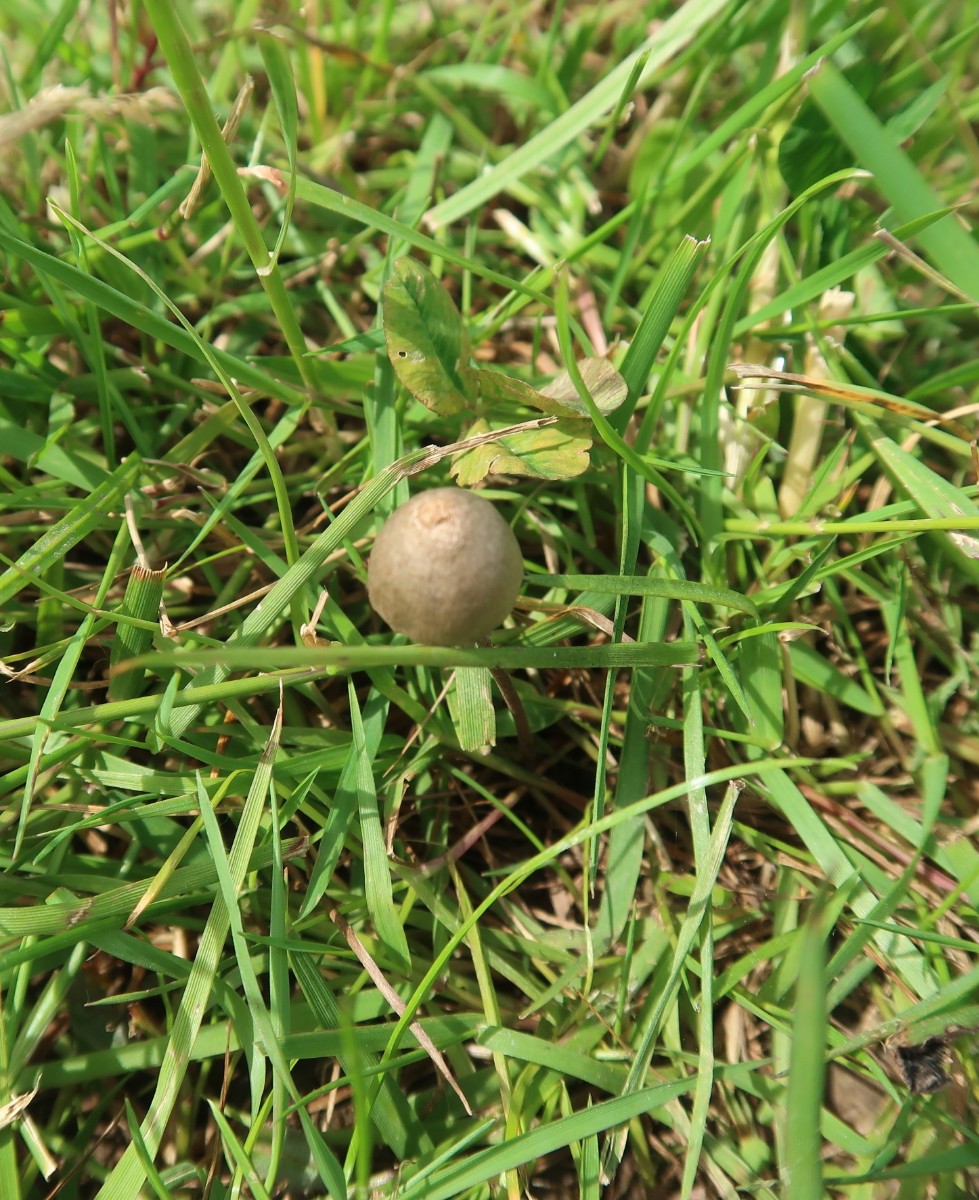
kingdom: Fungi
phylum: Basidiomycota
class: Agaricomycetes
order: Agaricales
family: Bolbitiaceae
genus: Panaeolus
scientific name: Panaeolus papilionaceus
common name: Almindelig glanshat
